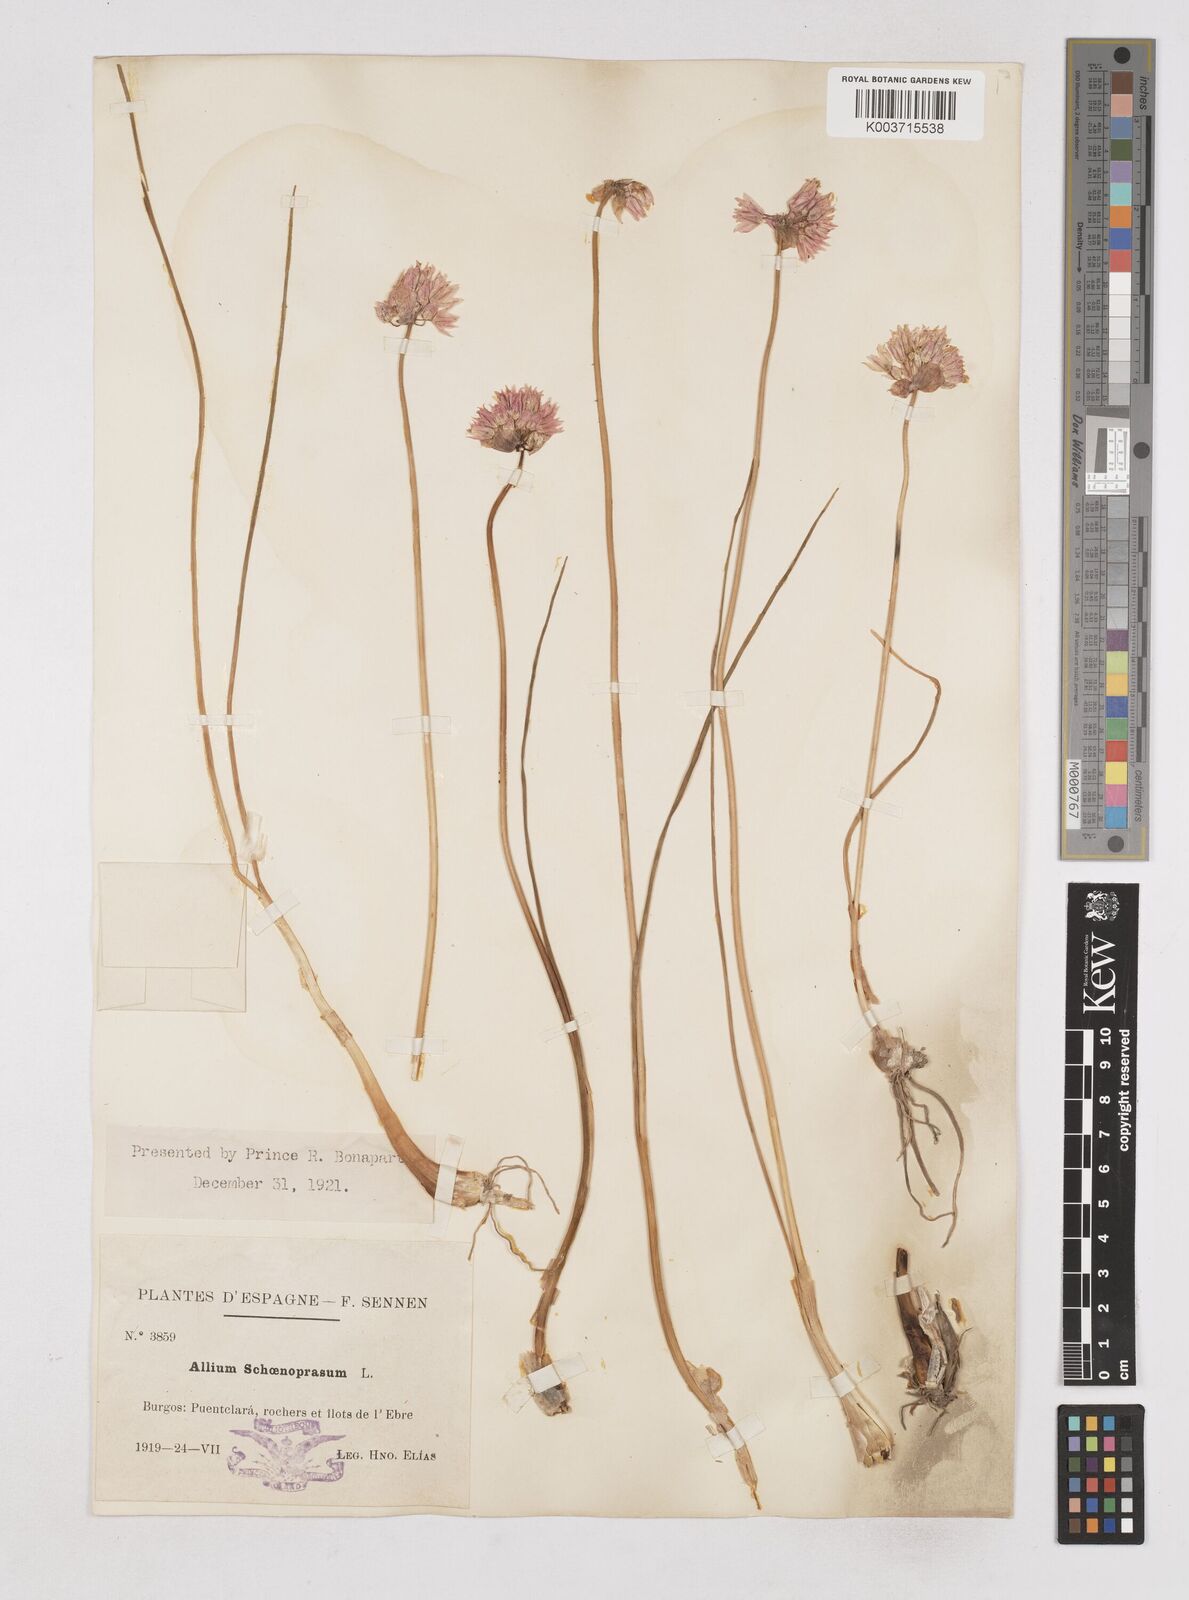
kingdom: Plantae
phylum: Tracheophyta
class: Liliopsida
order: Asparagales
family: Amaryllidaceae
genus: Allium
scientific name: Allium schoenoprasum
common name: Chives
